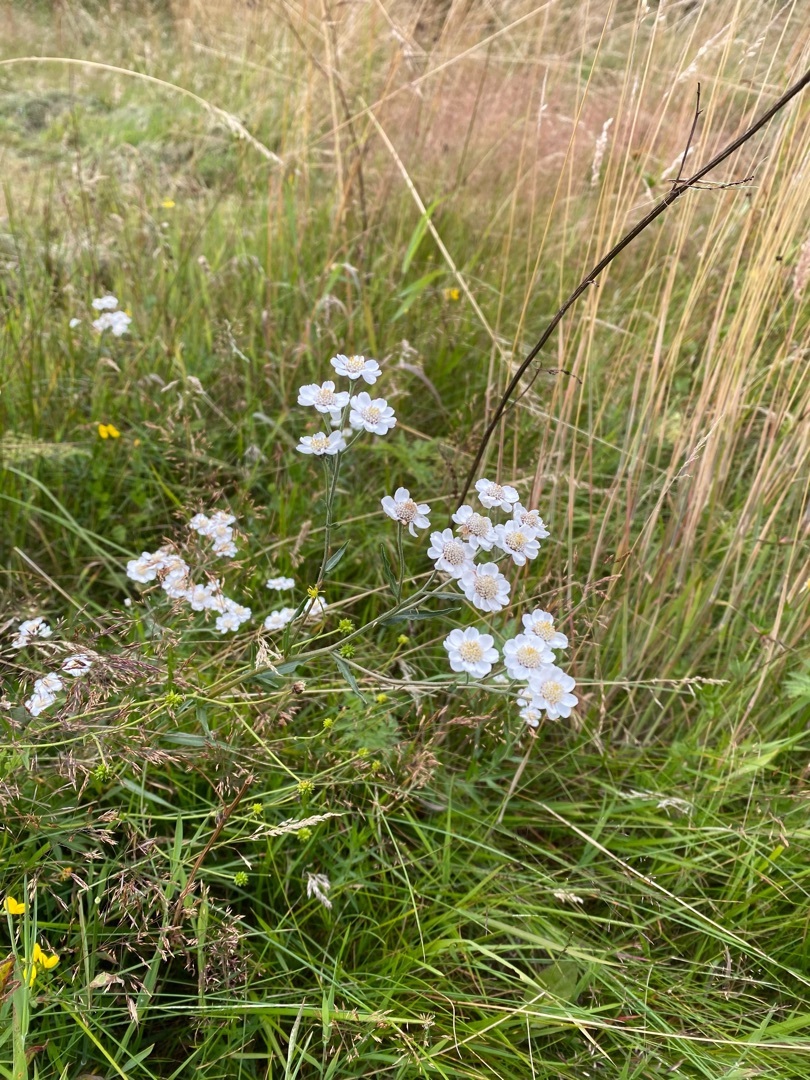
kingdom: Plantae
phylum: Tracheophyta
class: Magnoliopsida
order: Asterales
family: Asteraceae
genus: Achillea
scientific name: Achillea ptarmica
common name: Nyse-røllike
